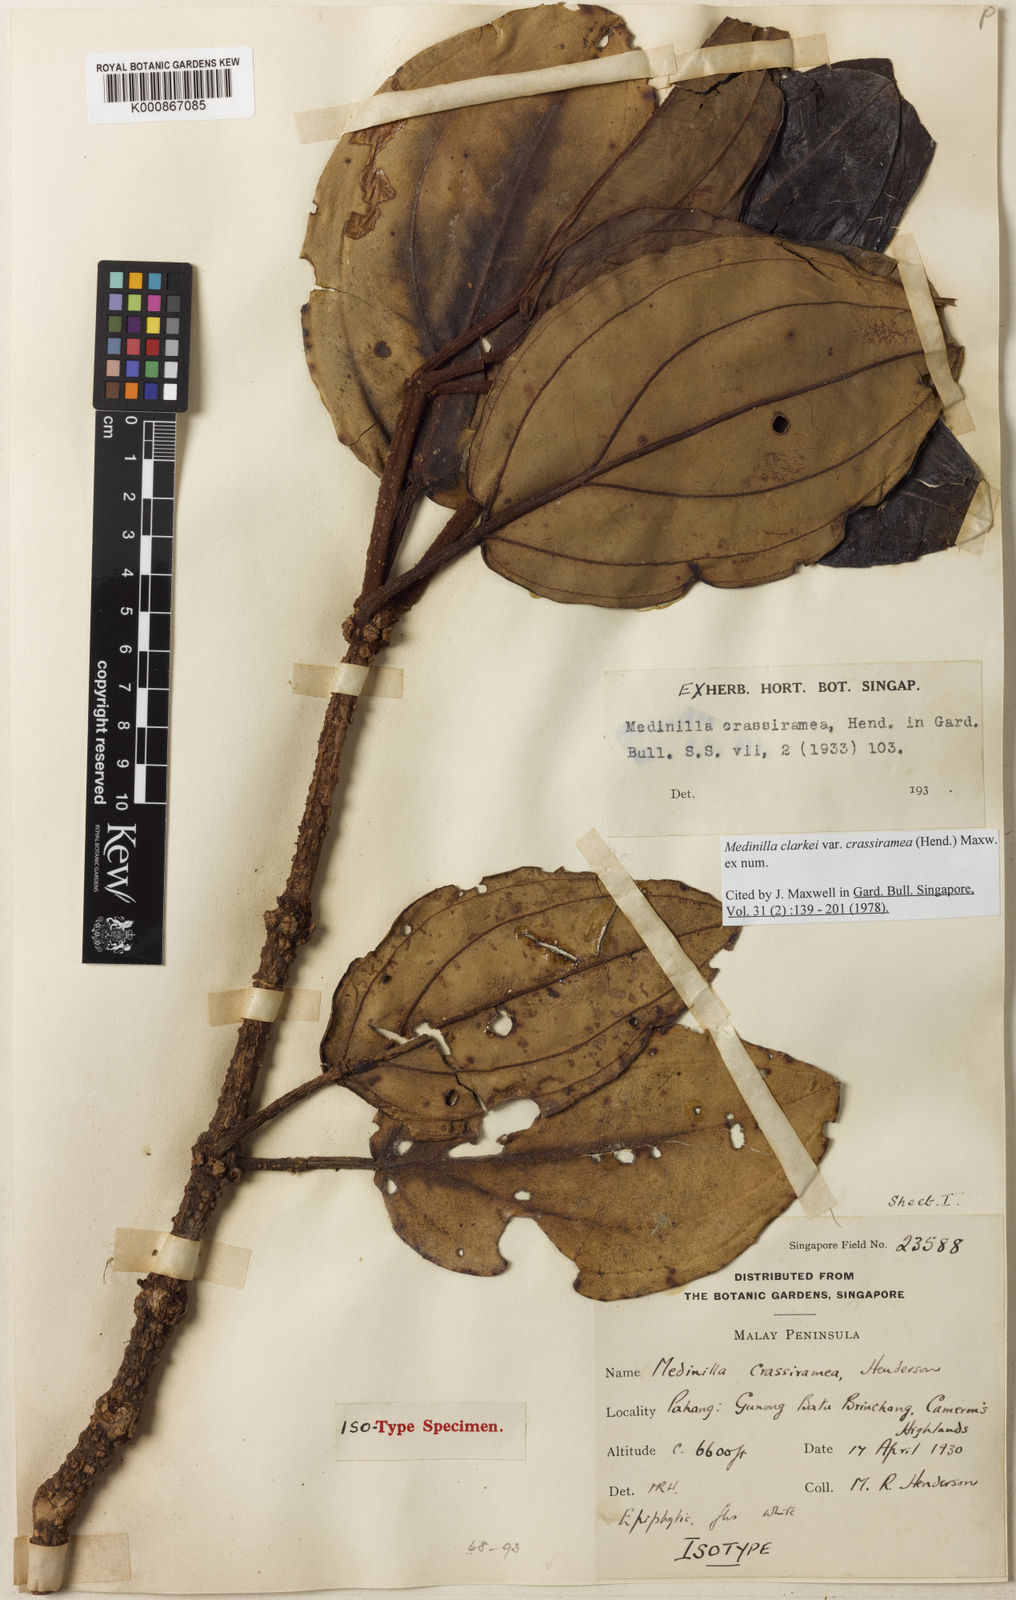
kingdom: Plantae
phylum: Tracheophyta
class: Magnoliopsida
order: Myrtales
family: Melastomataceae
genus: Medinilla
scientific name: Medinilla clarkei
